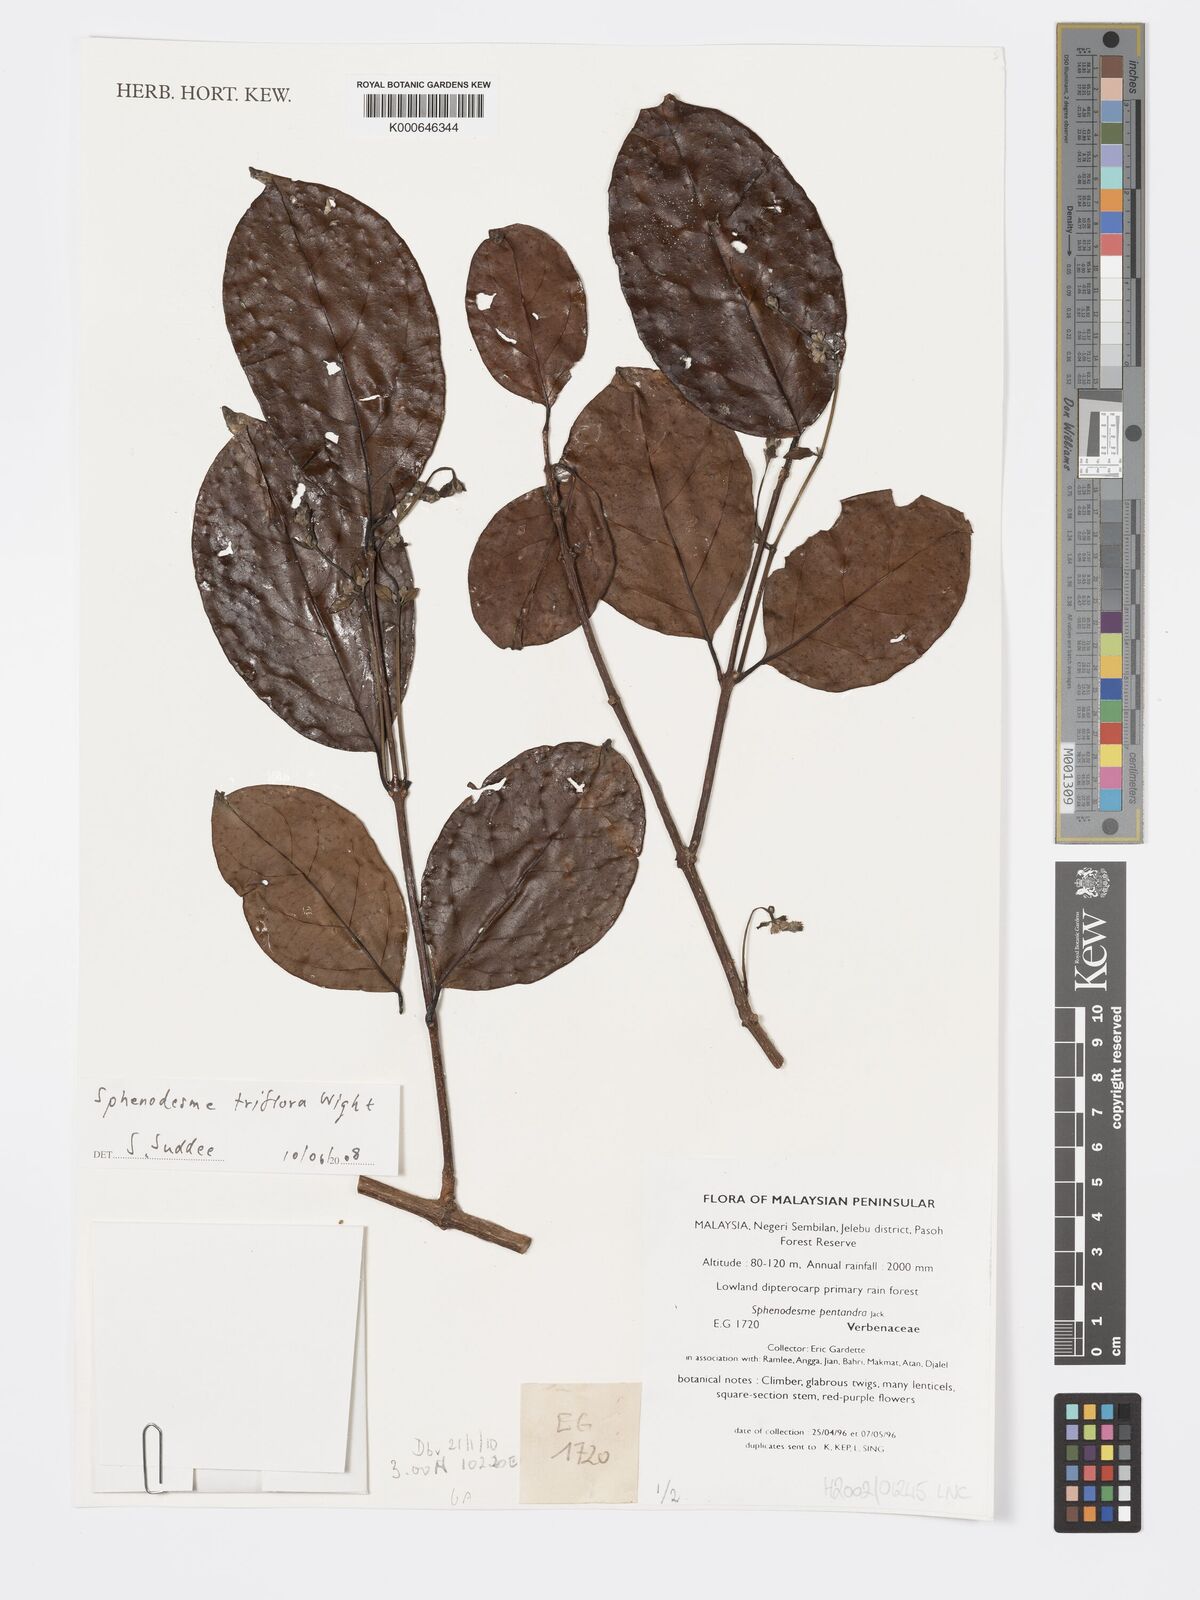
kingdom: Plantae
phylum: Tracheophyta
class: Magnoliopsida
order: Lamiales
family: Lamiaceae
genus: Sphenodesme
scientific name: Sphenodesme
